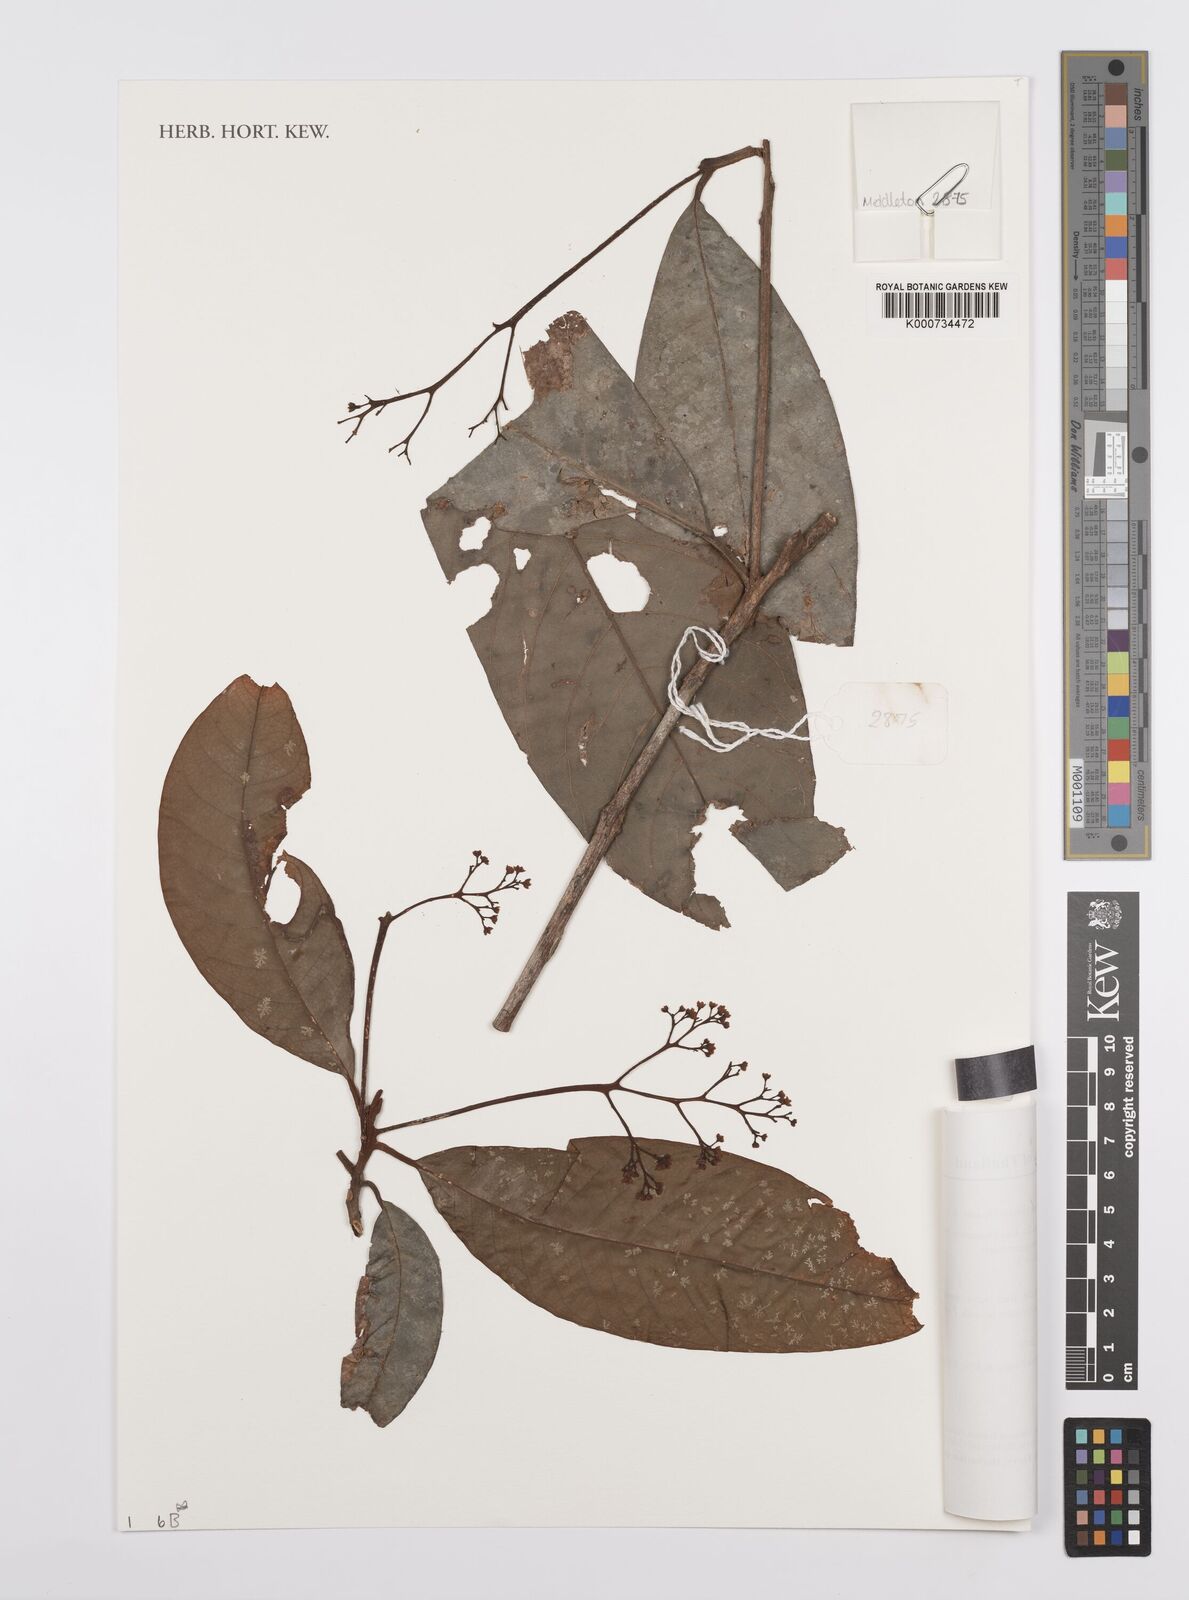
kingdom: Plantae
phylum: Tracheophyta
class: Magnoliopsida
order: Laurales
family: Lauraceae
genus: Cryptocarya
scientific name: Cryptocarya nitens
